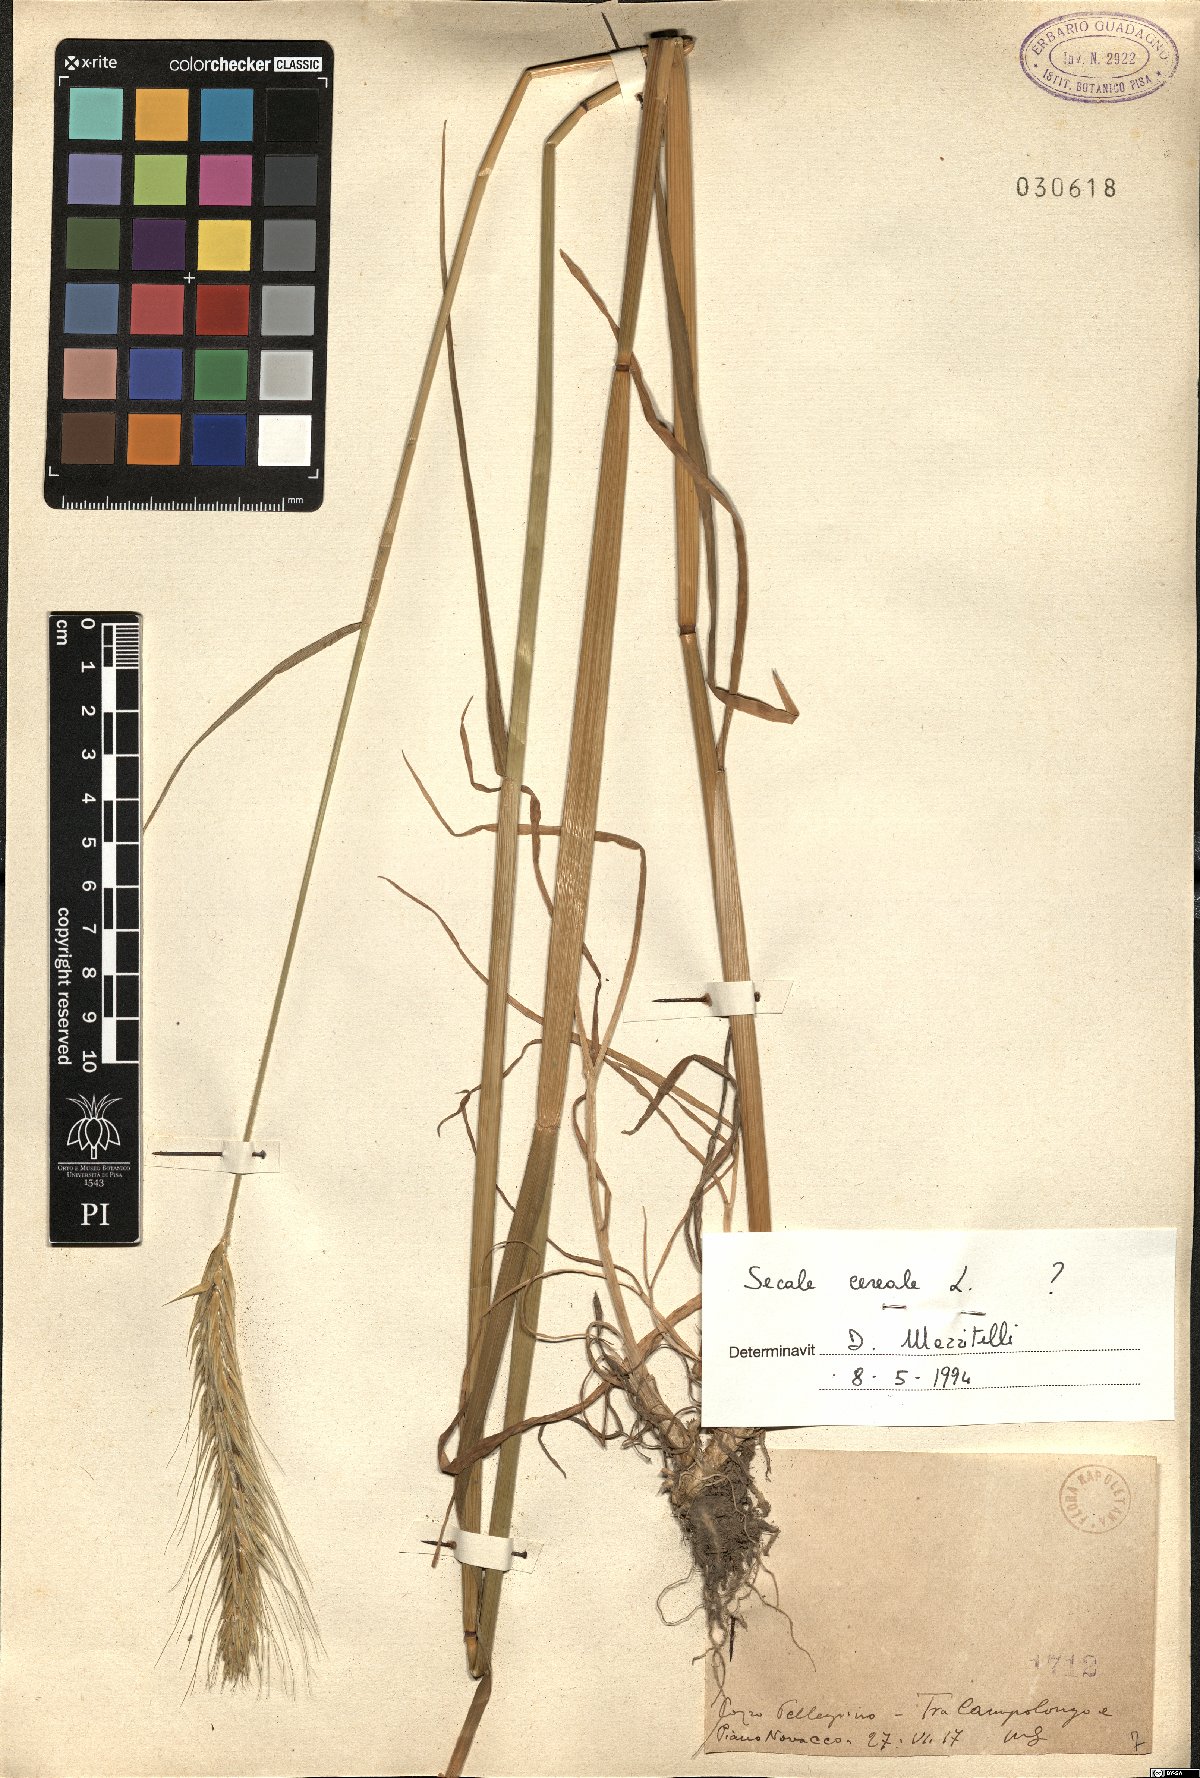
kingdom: Plantae
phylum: Tracheophyta
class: Liliopsida
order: Poales
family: Poaceae
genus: Secale
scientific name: Secale cereale
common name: Rye
